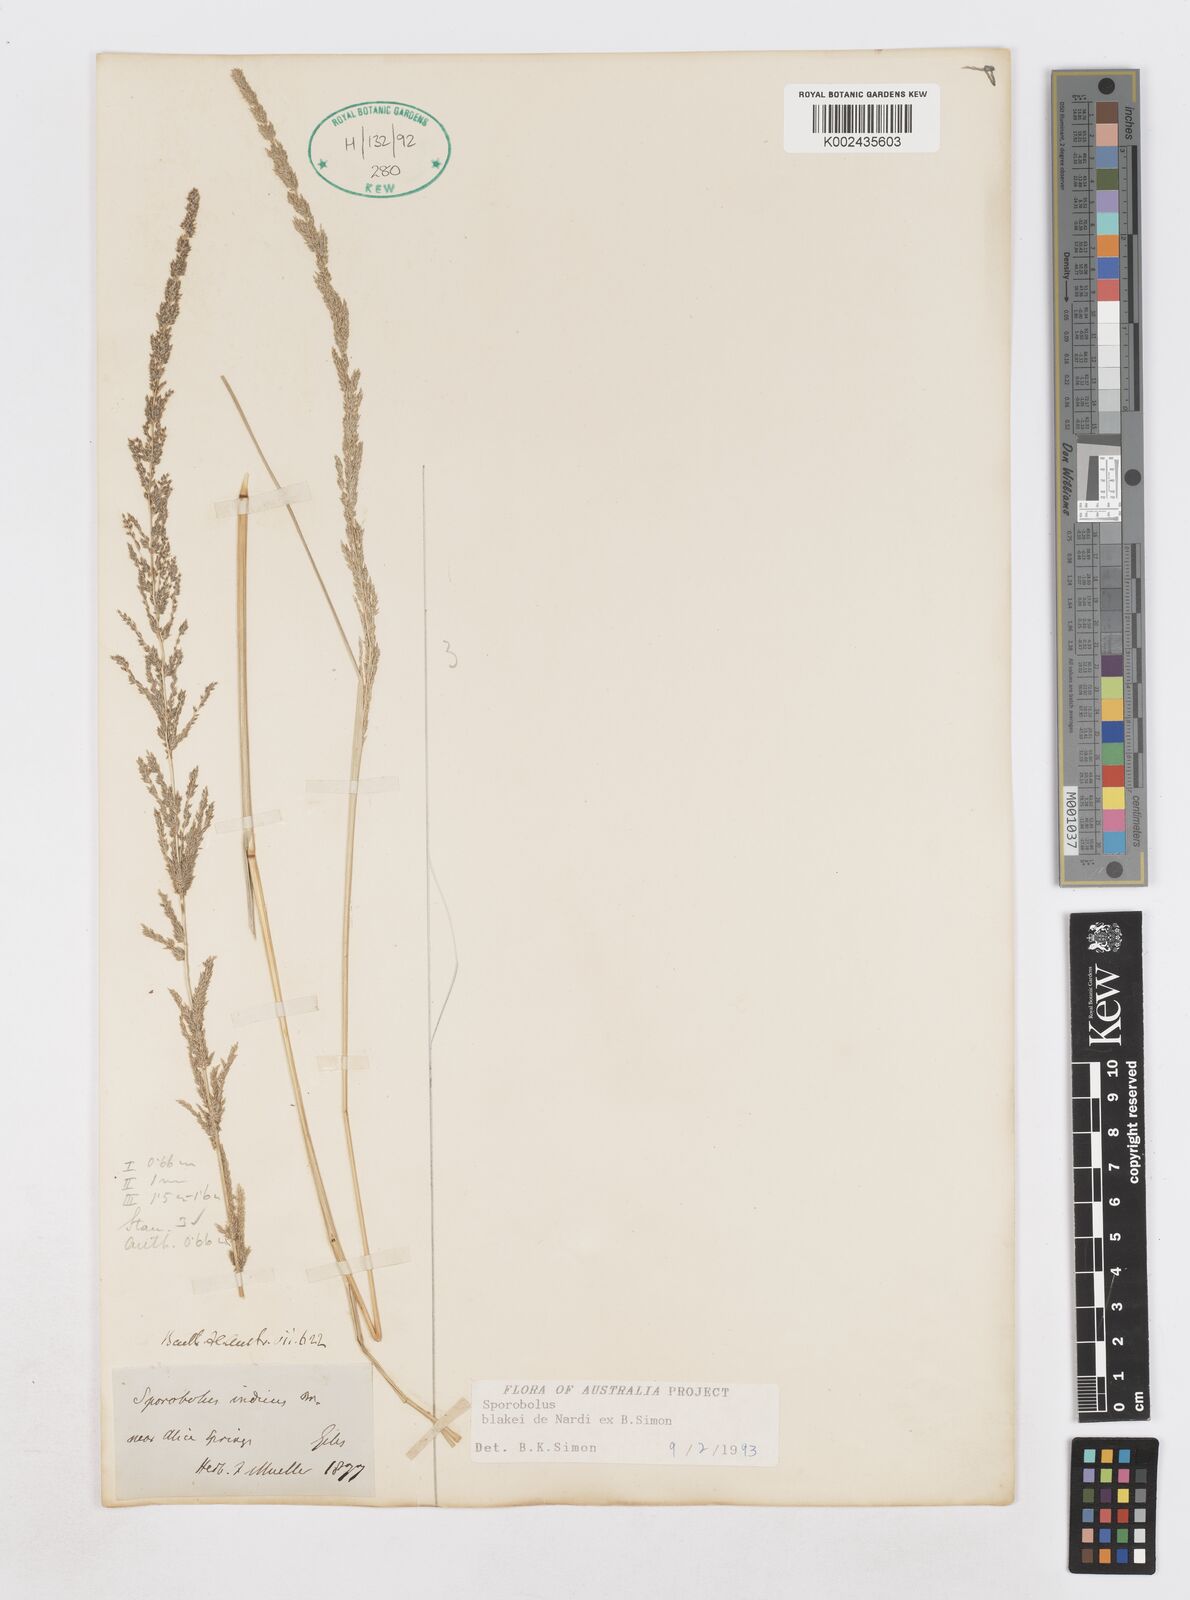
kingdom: Plantae
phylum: Tracheophyta
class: Liliopsida
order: Poales
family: Poaceae
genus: Sporobolus
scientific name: Sporobolus blakei
